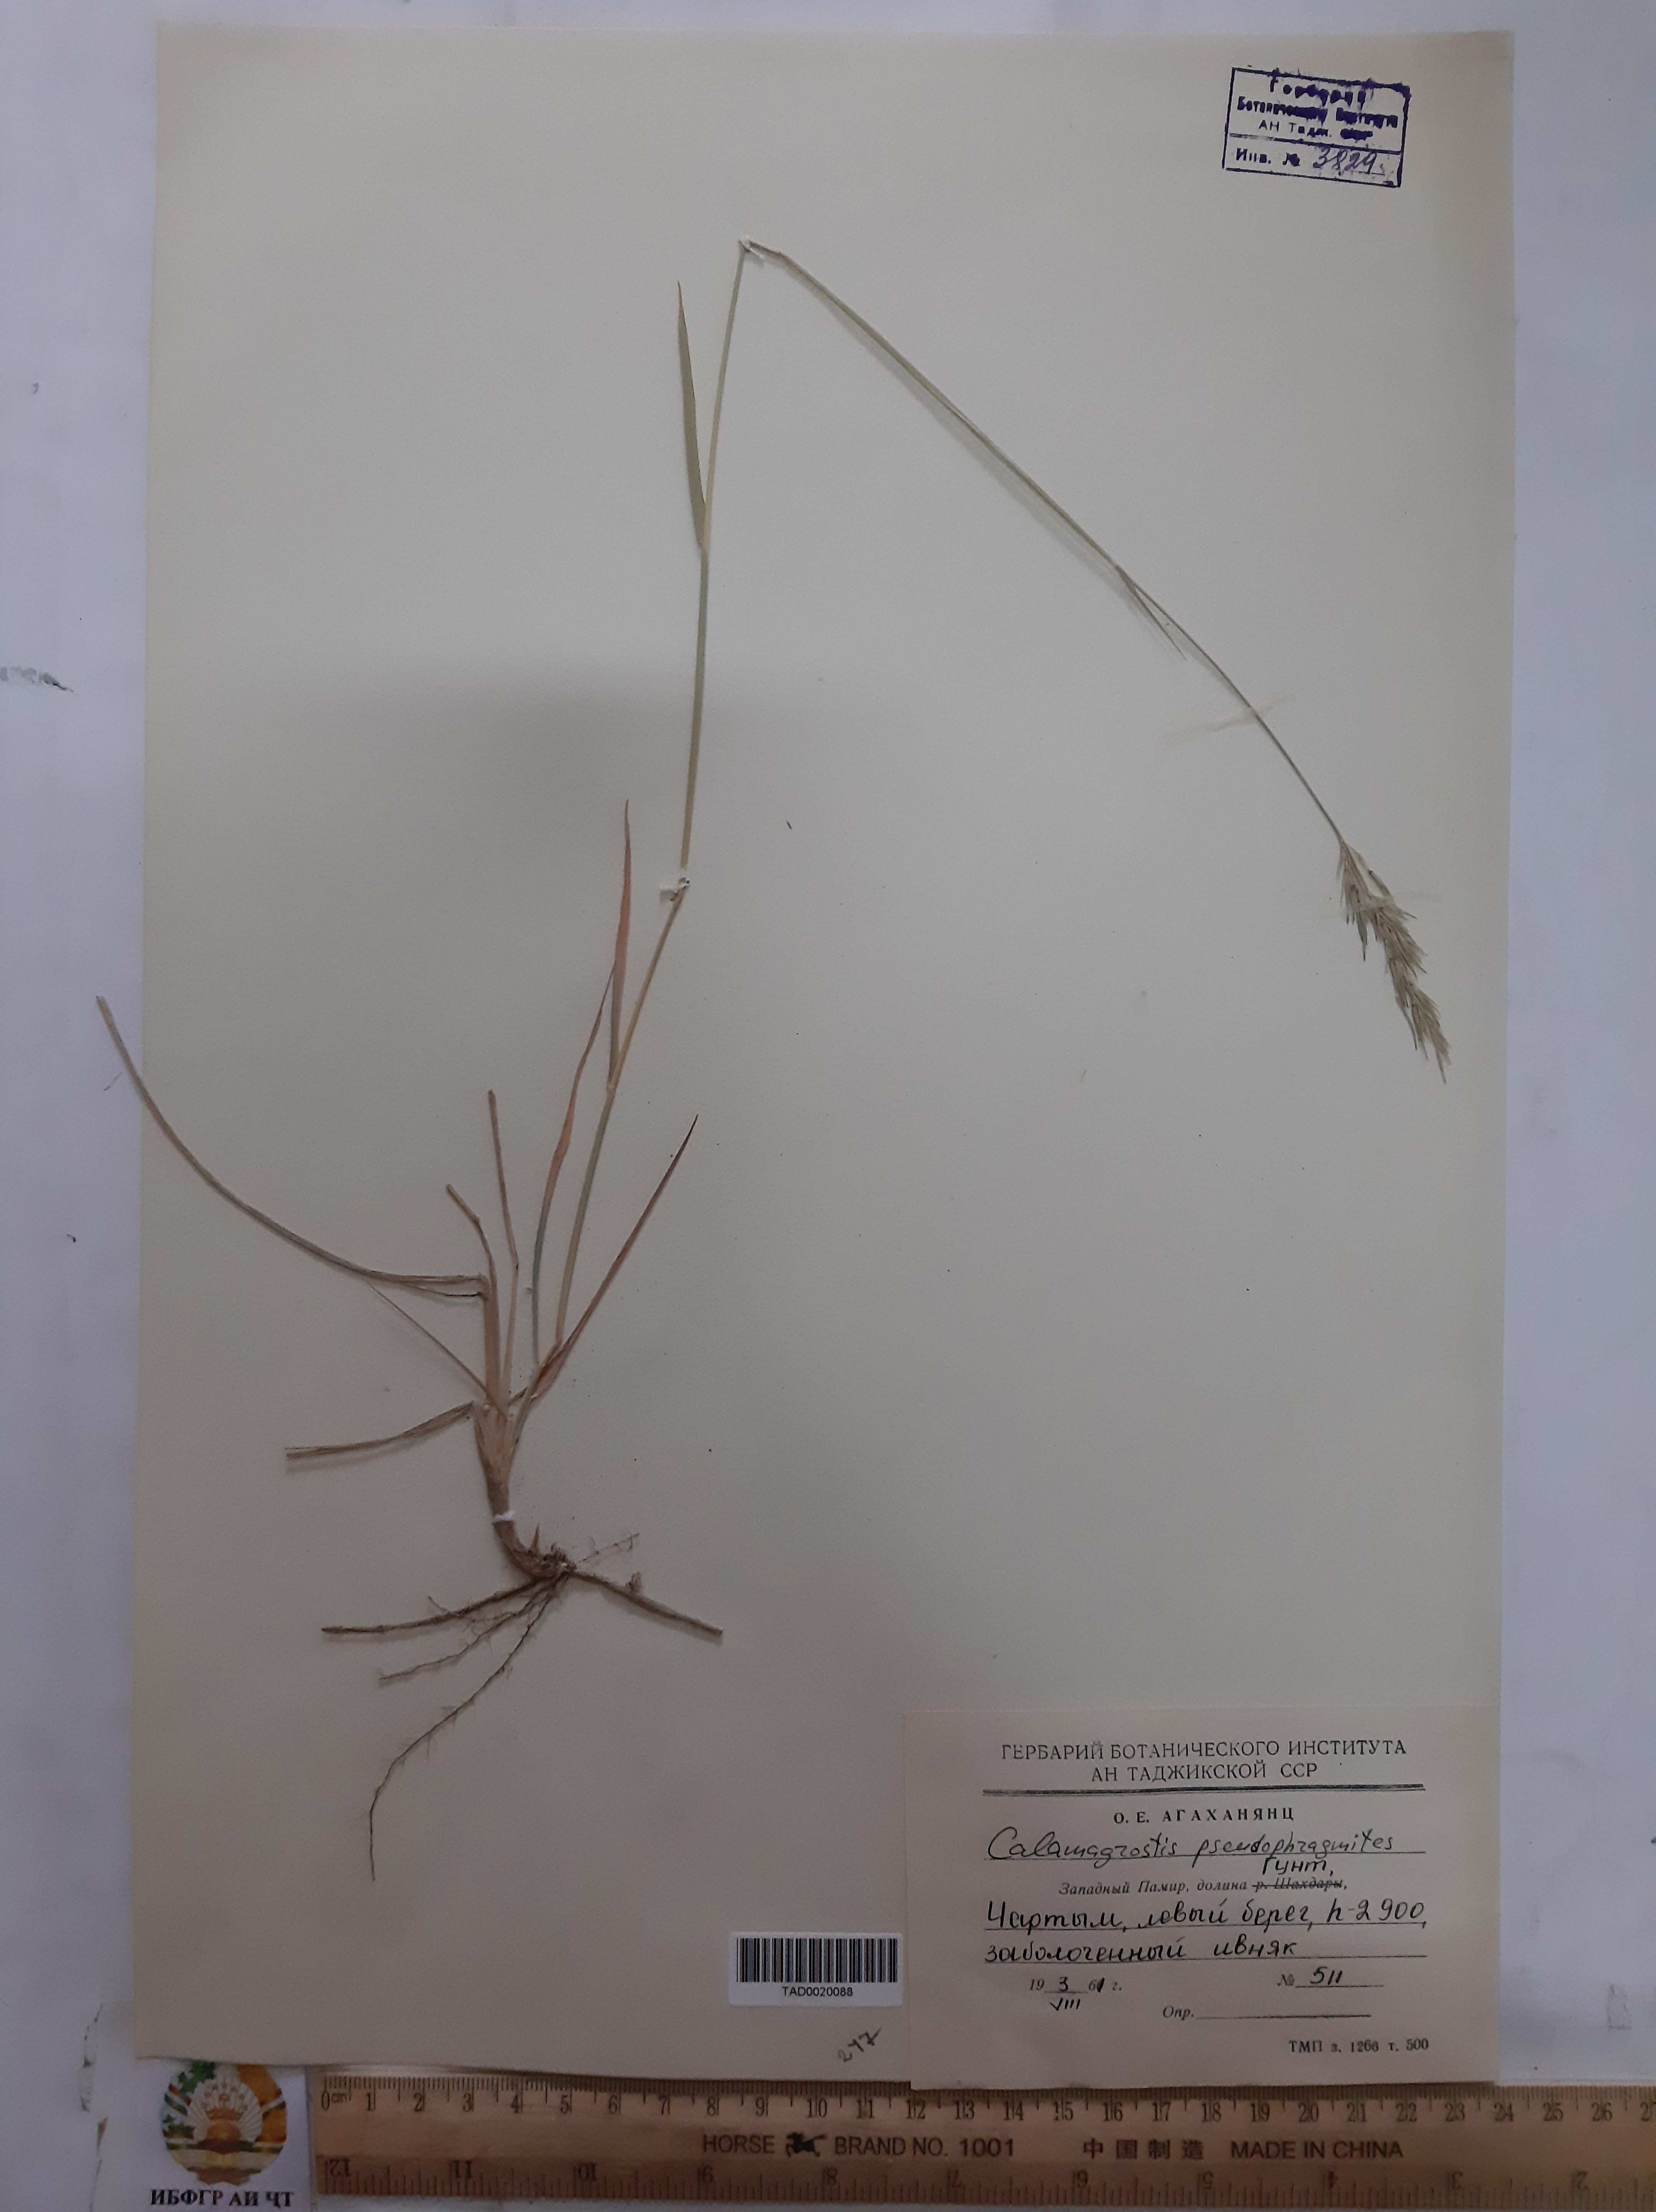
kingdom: Plantae
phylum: Tracheophyta
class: Liliopsida
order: Poales
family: Poaceae
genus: Calamagrostis
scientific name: Calamagrostis pseudophragmites
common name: Coastal small-reed
